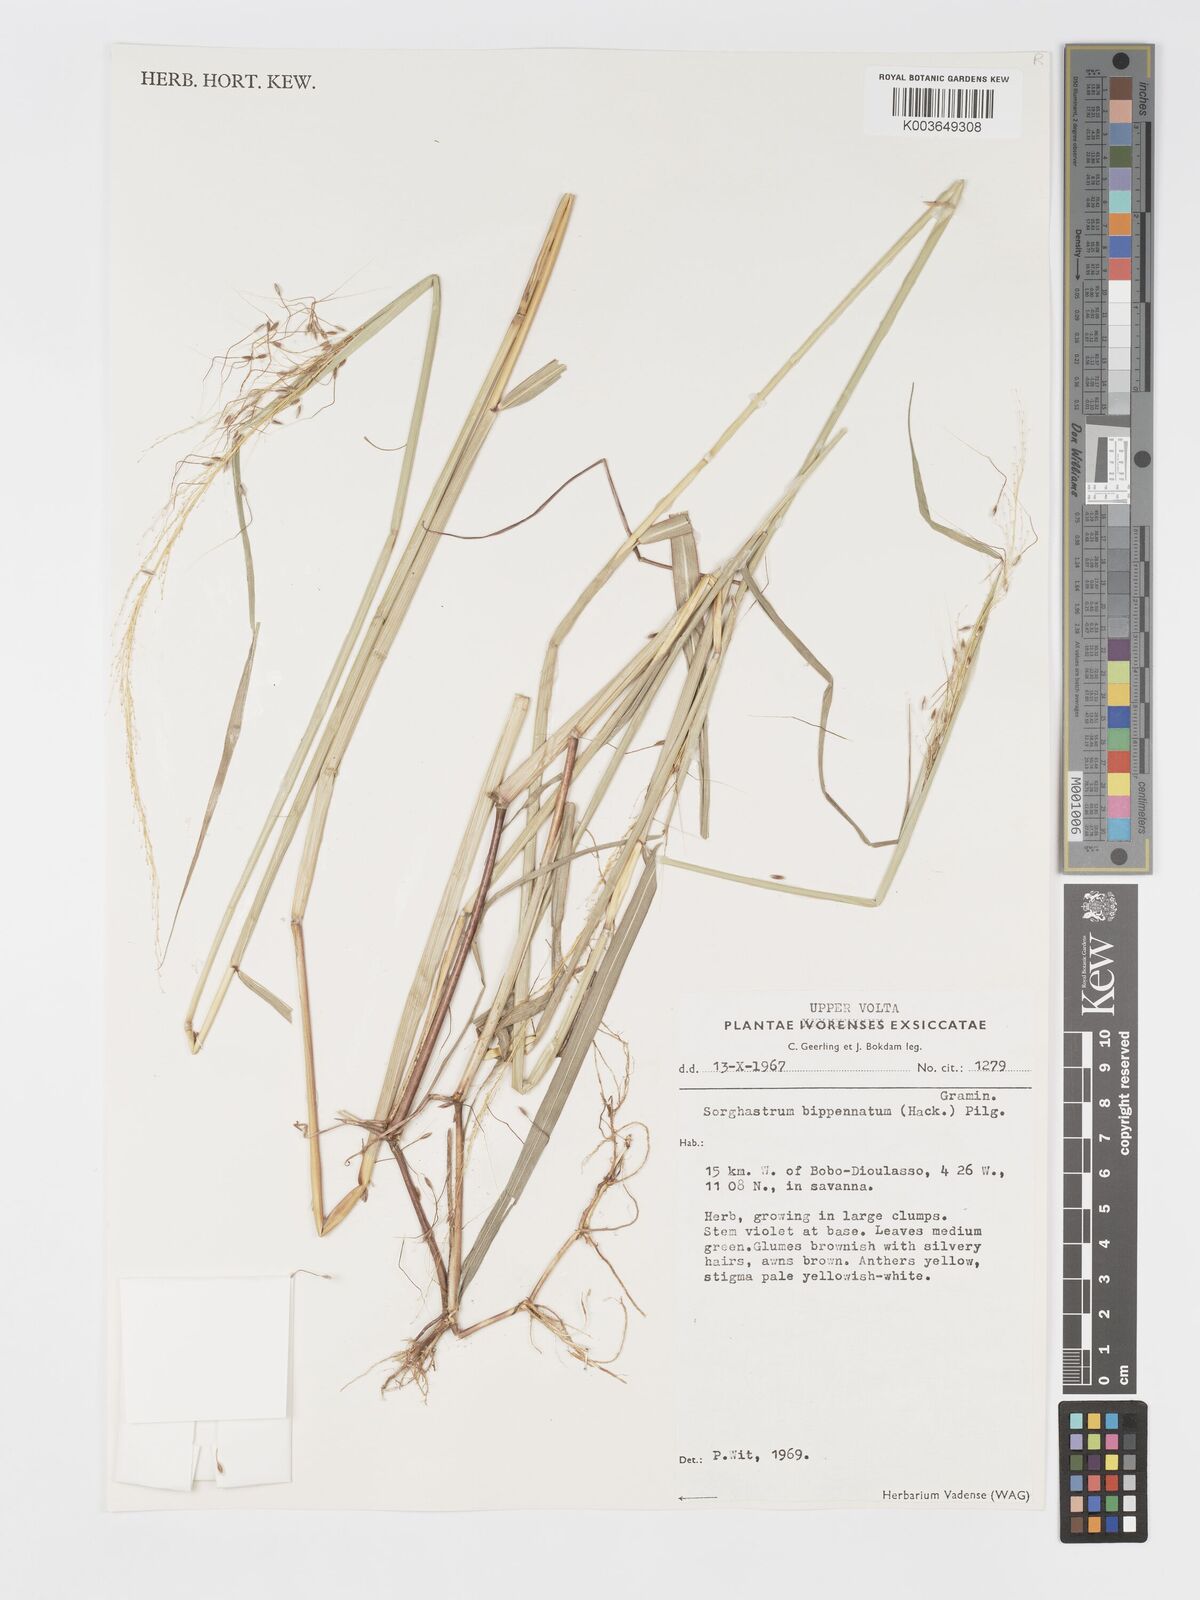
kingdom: Plantae
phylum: Tracheophyta
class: Liliopsida
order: Poales
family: Poaceae
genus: Sorghastrum
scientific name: Sorghastrum incompletum
